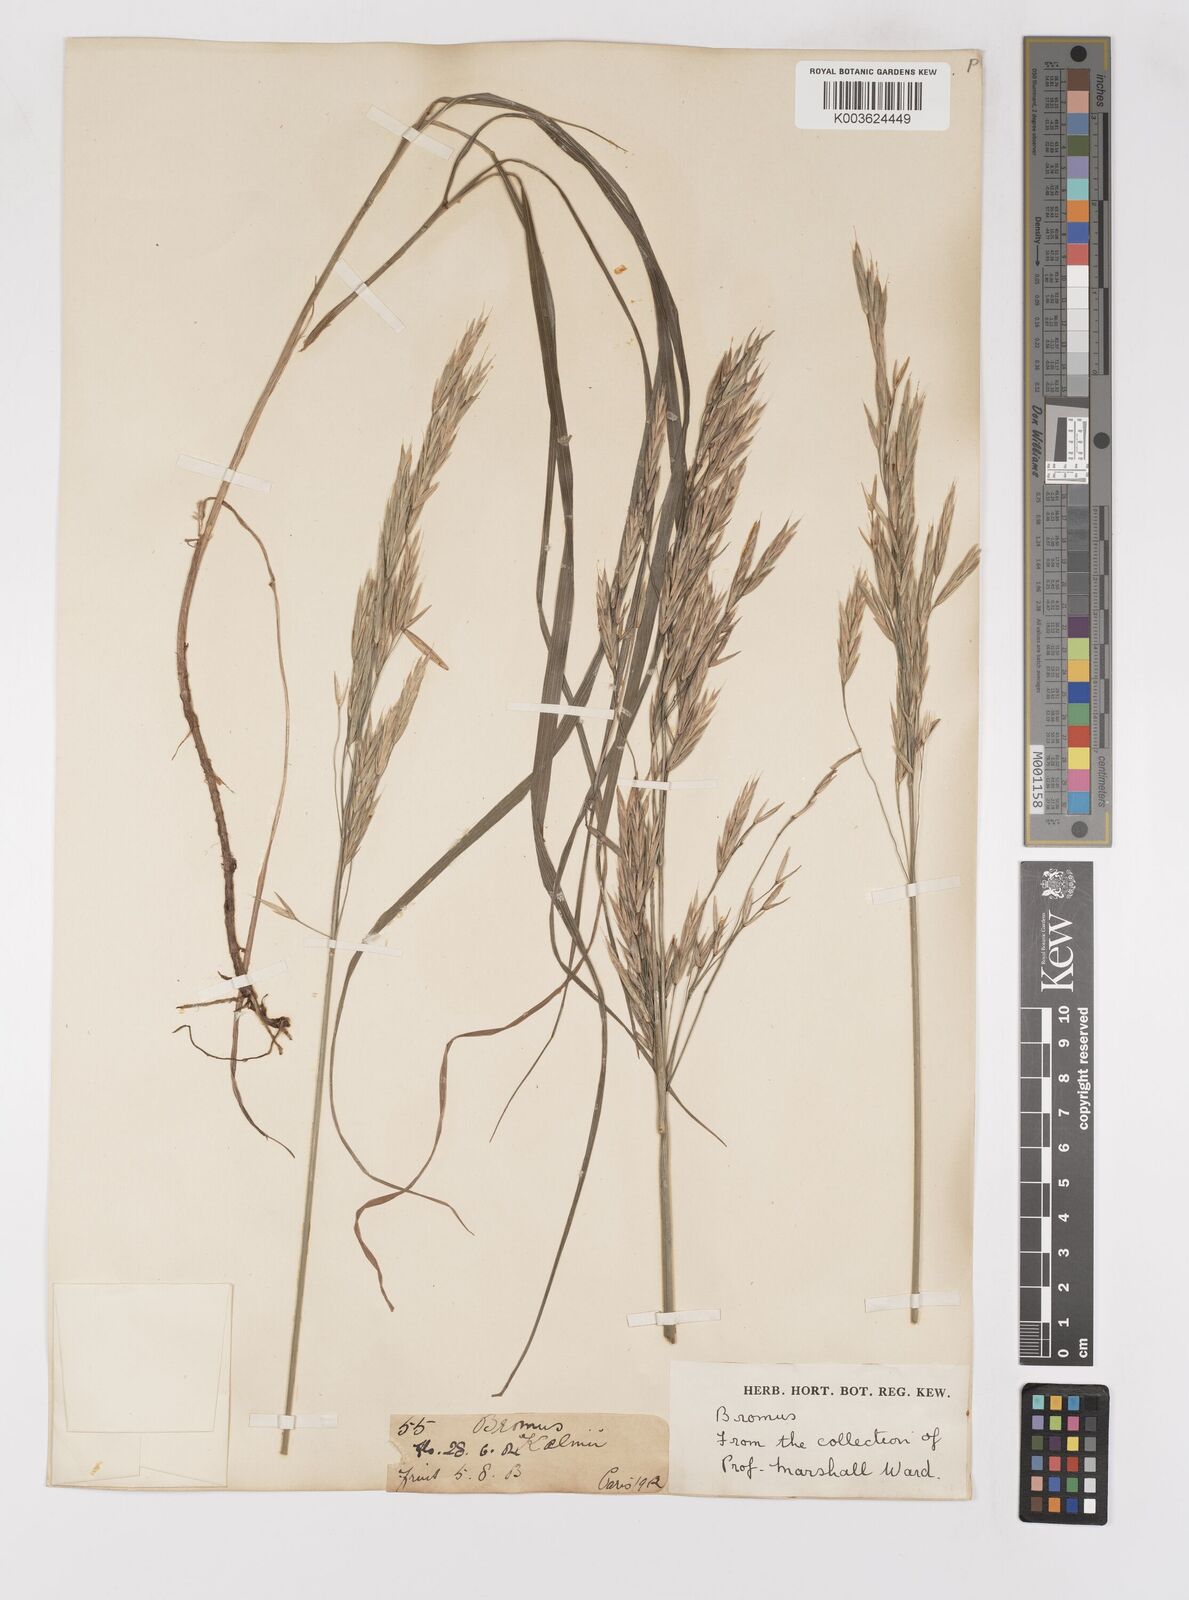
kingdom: Plantae
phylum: Tracheophyta
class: Liliopsida
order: Poales
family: Poaceae
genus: Bromus
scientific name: Bromus
